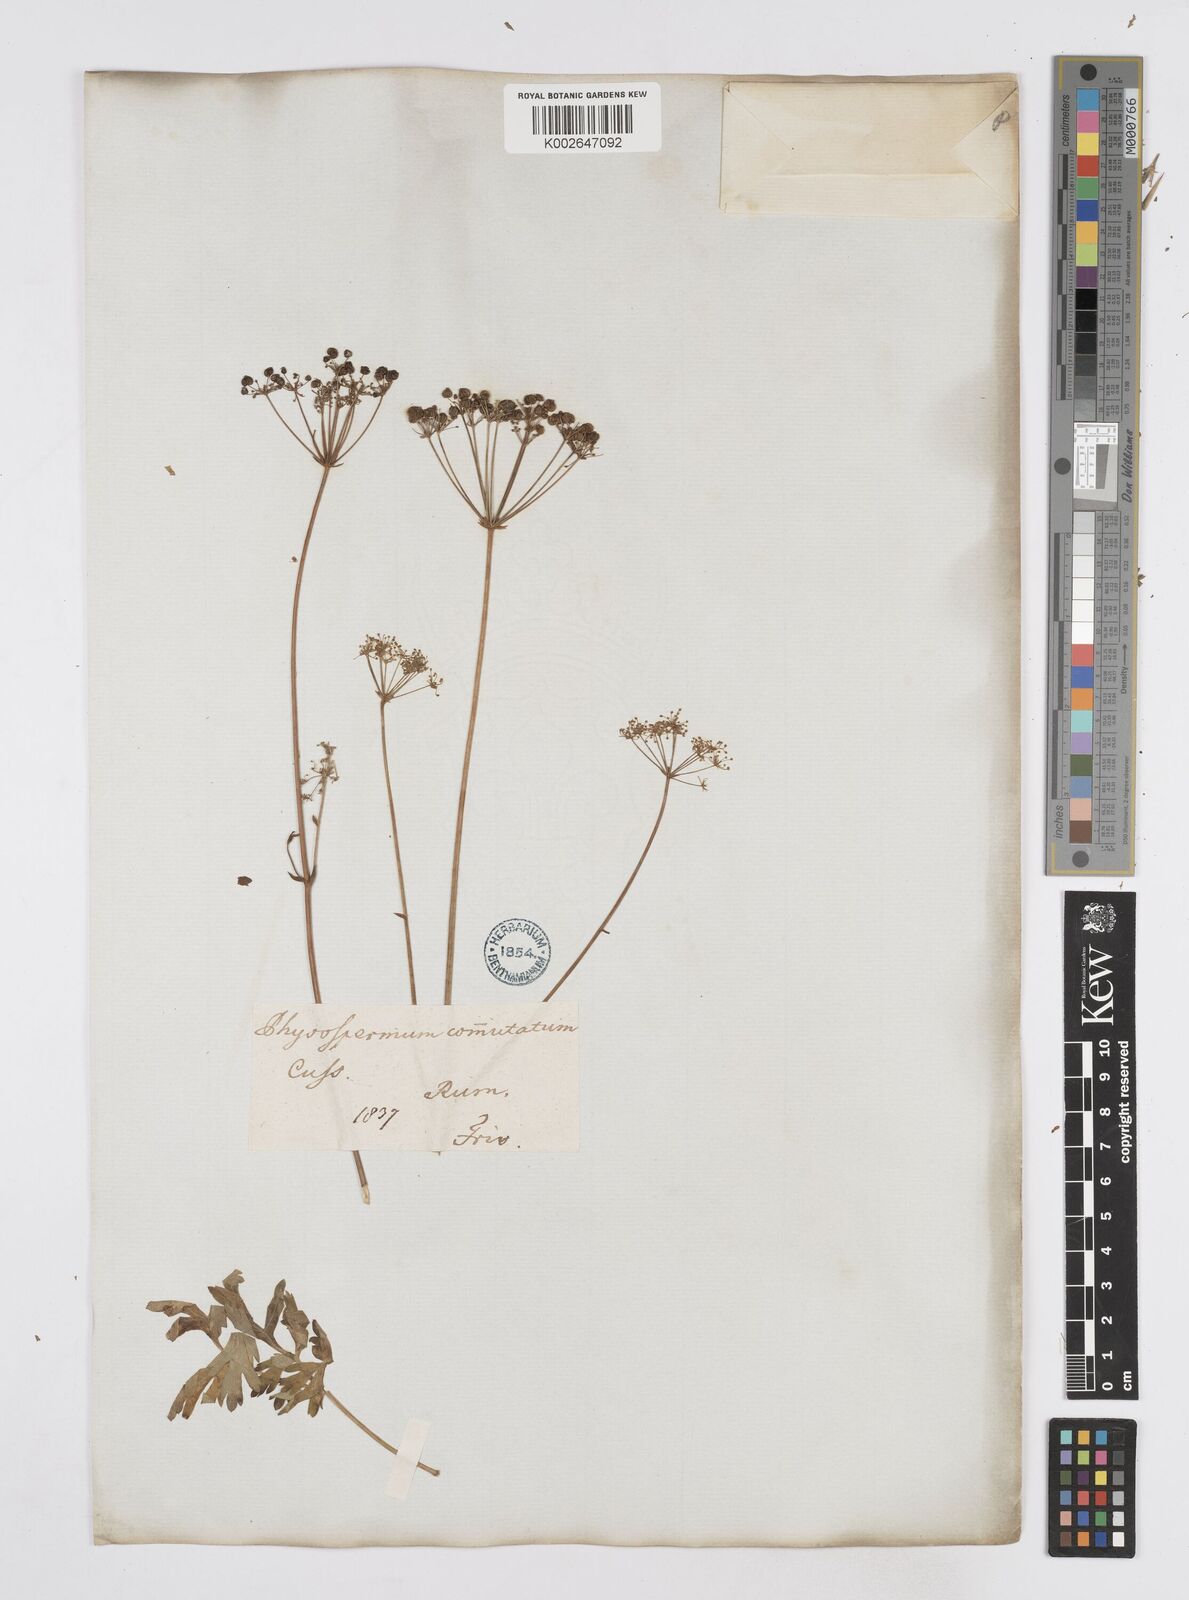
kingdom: Plantae
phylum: Tracheophyta
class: Magnoliopsida
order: Apiales
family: Apiaceae
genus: Physospermum
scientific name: Physospermum cornubiense
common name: Bladderseed
